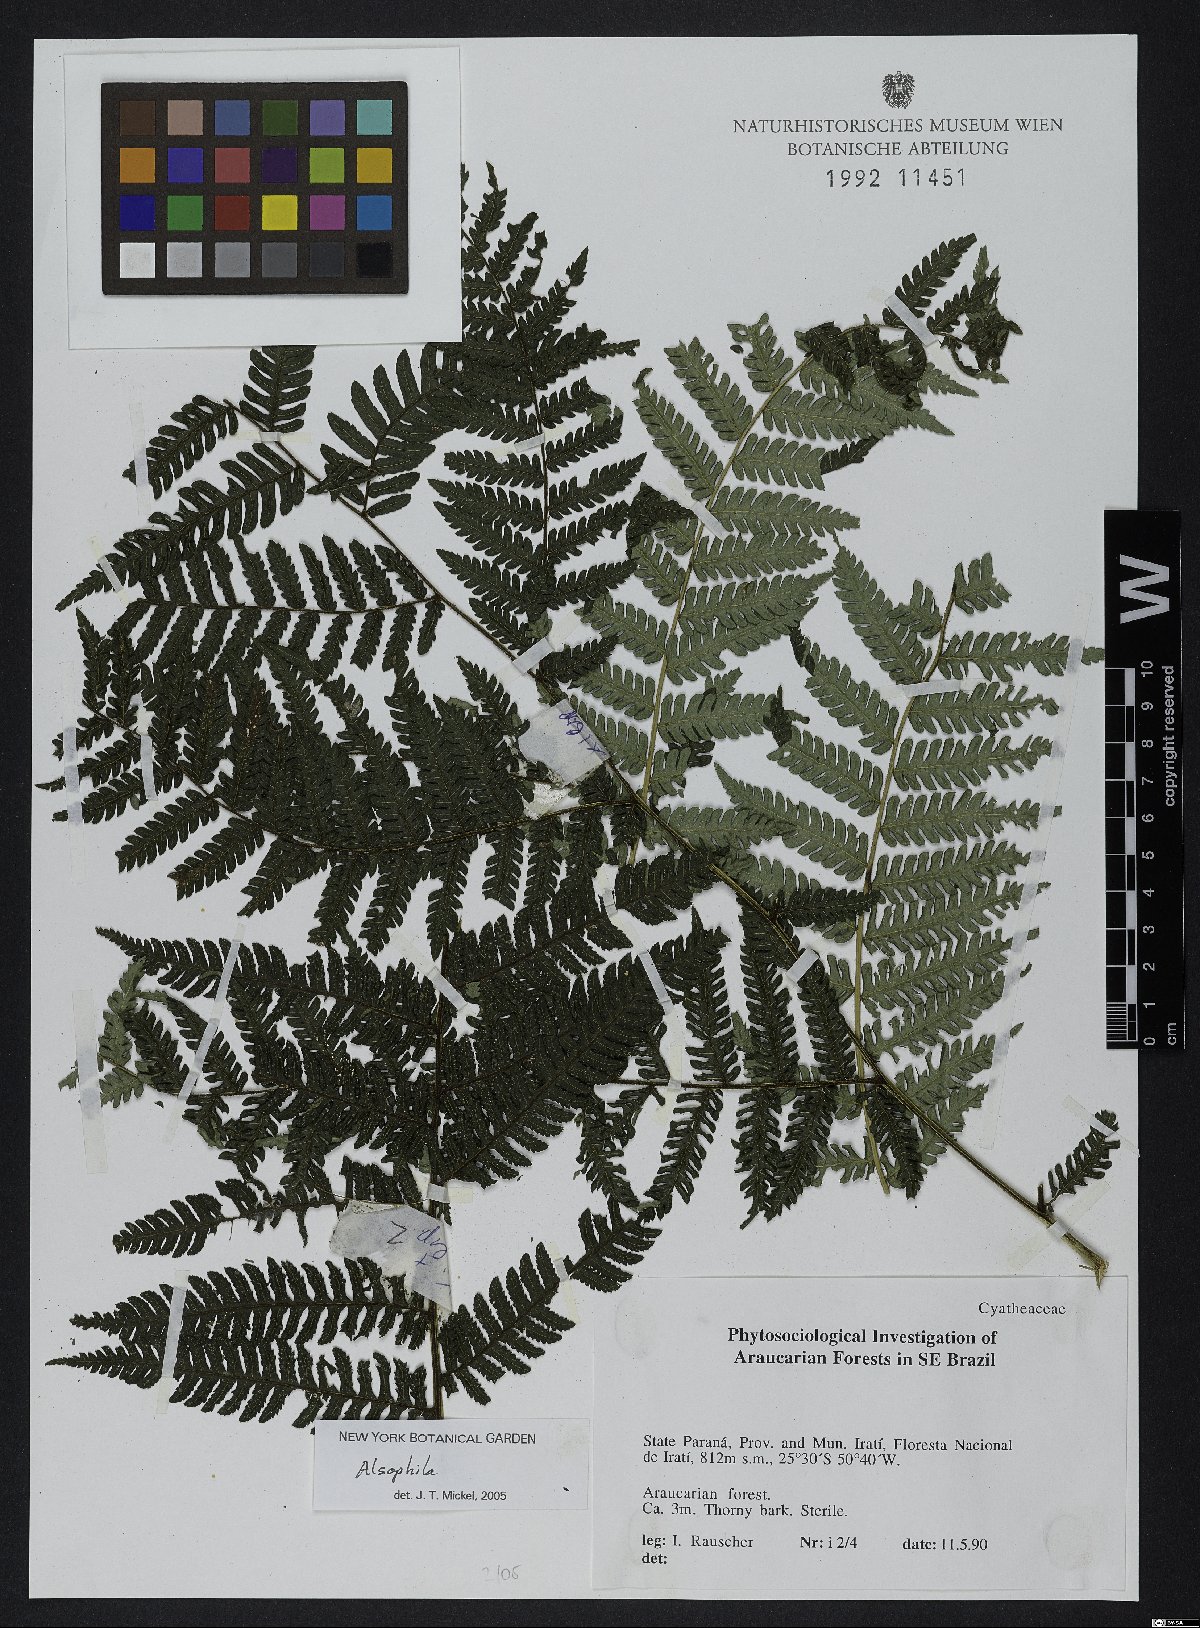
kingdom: Plantae
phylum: Tracheophyta
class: Polypodiopsida
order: Cyatheales
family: Cyatheaceae
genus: Alsophila
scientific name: Alsophila
